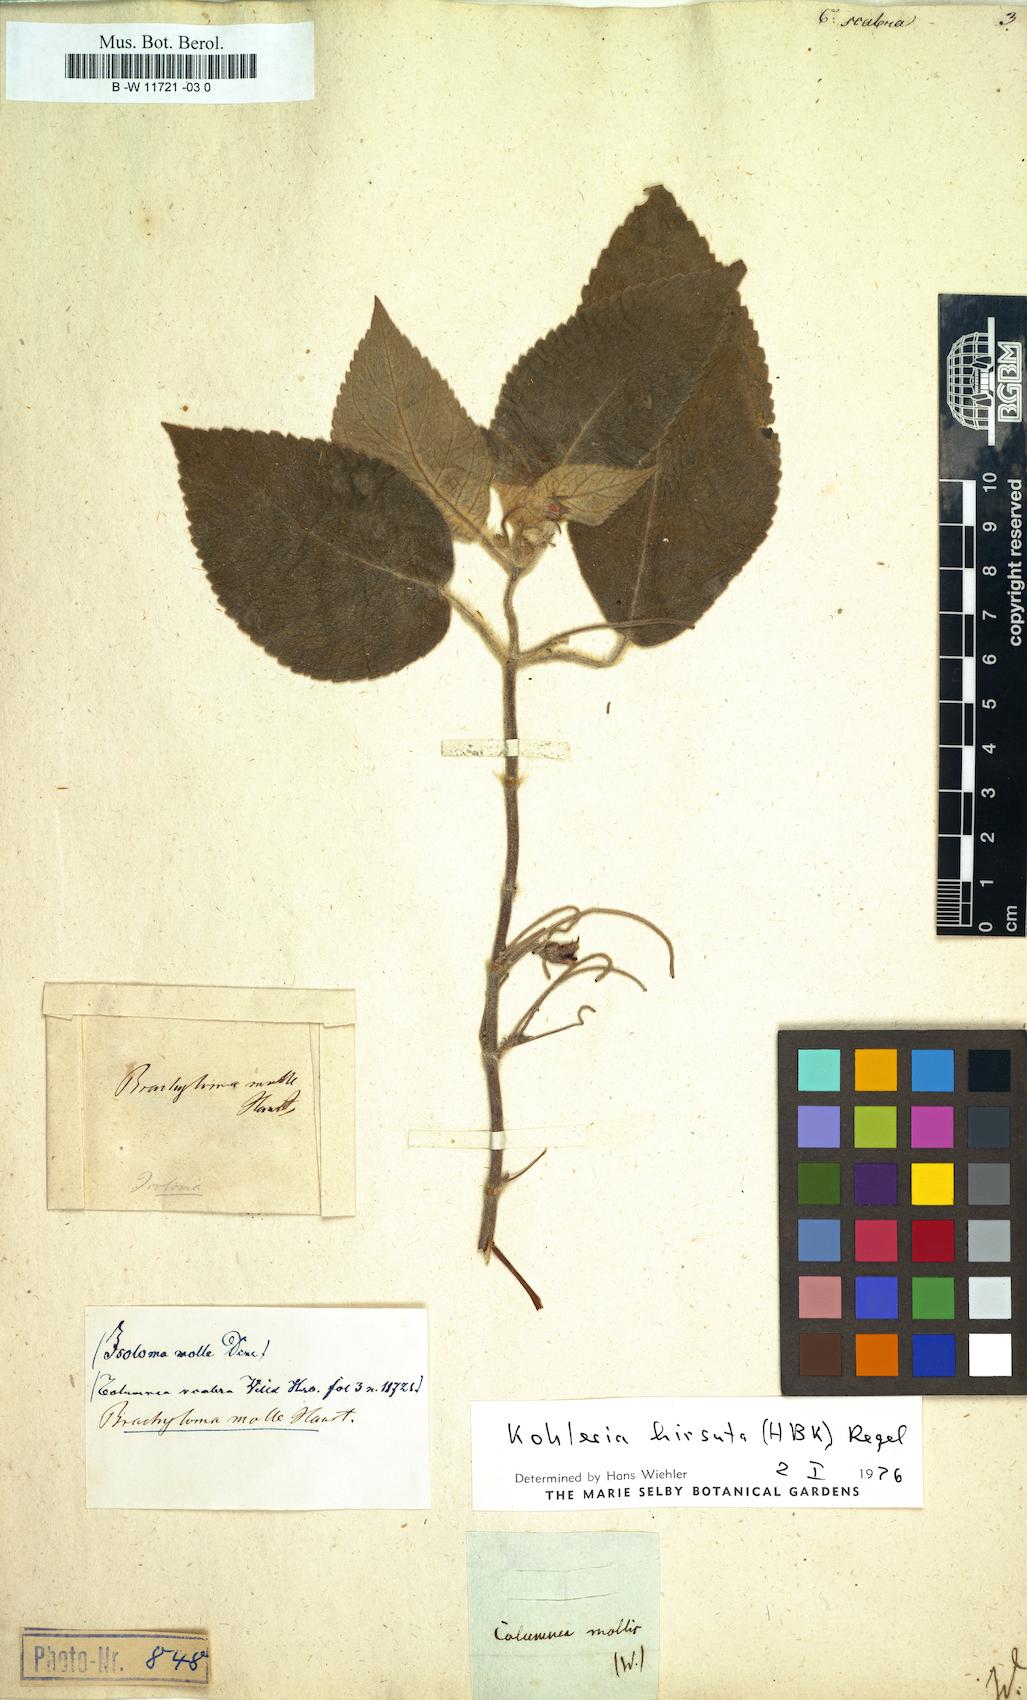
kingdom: Plantae
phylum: Tracheophyta
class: Magnoliopsida
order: Lamiales
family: Gesneriaceae
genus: Columnea
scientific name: Columnea scabrosa
